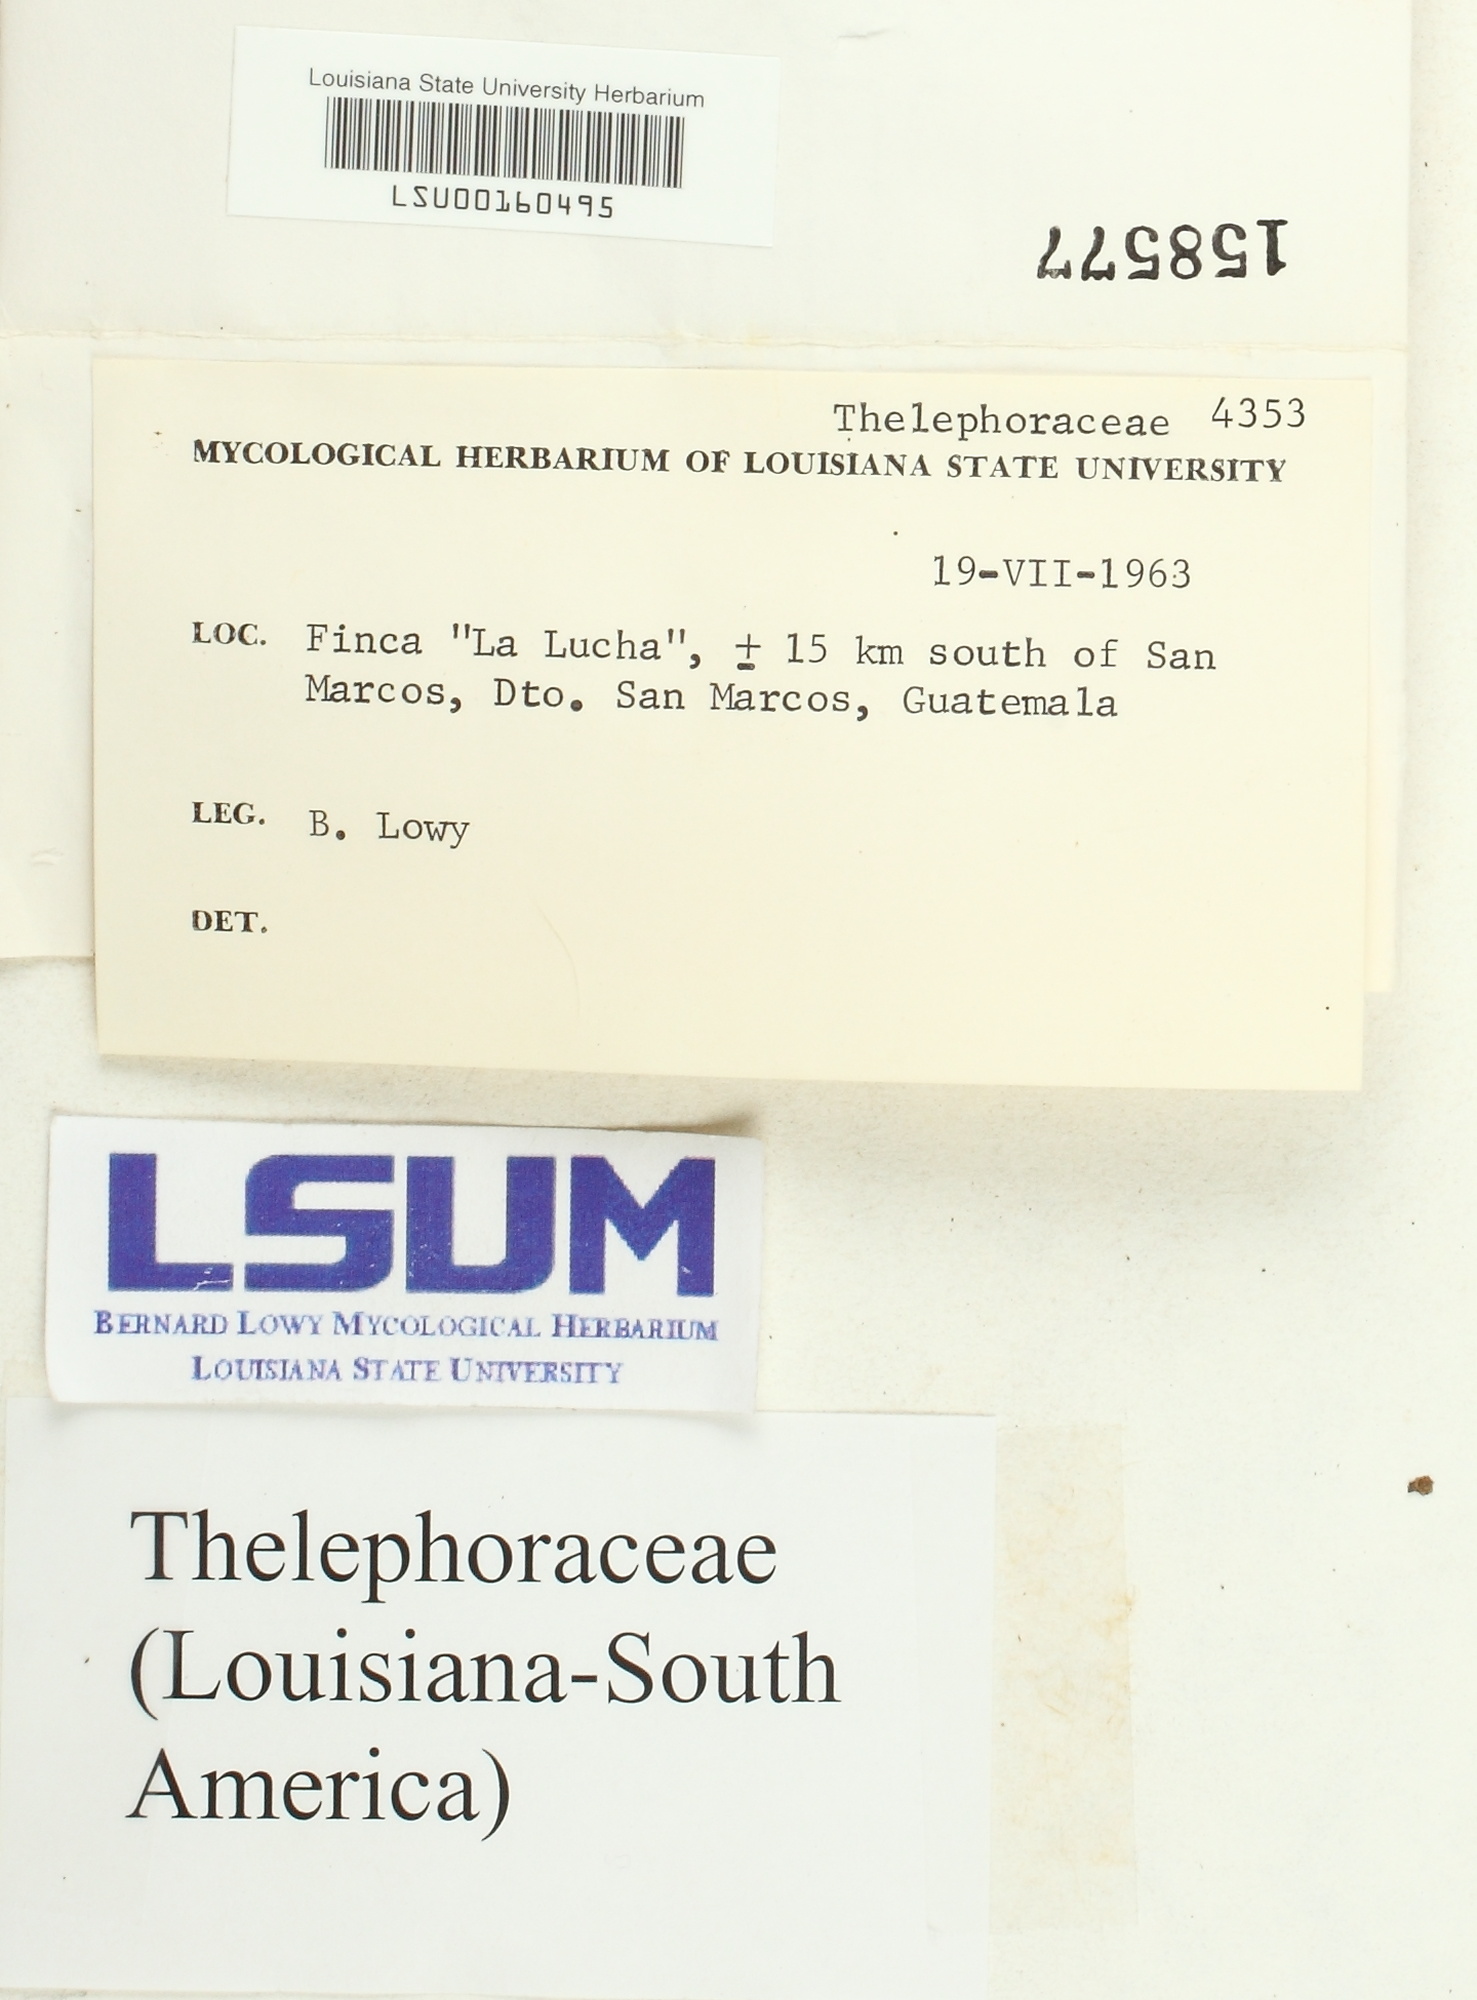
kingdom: Fungi
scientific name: Fungi
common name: Fungi
